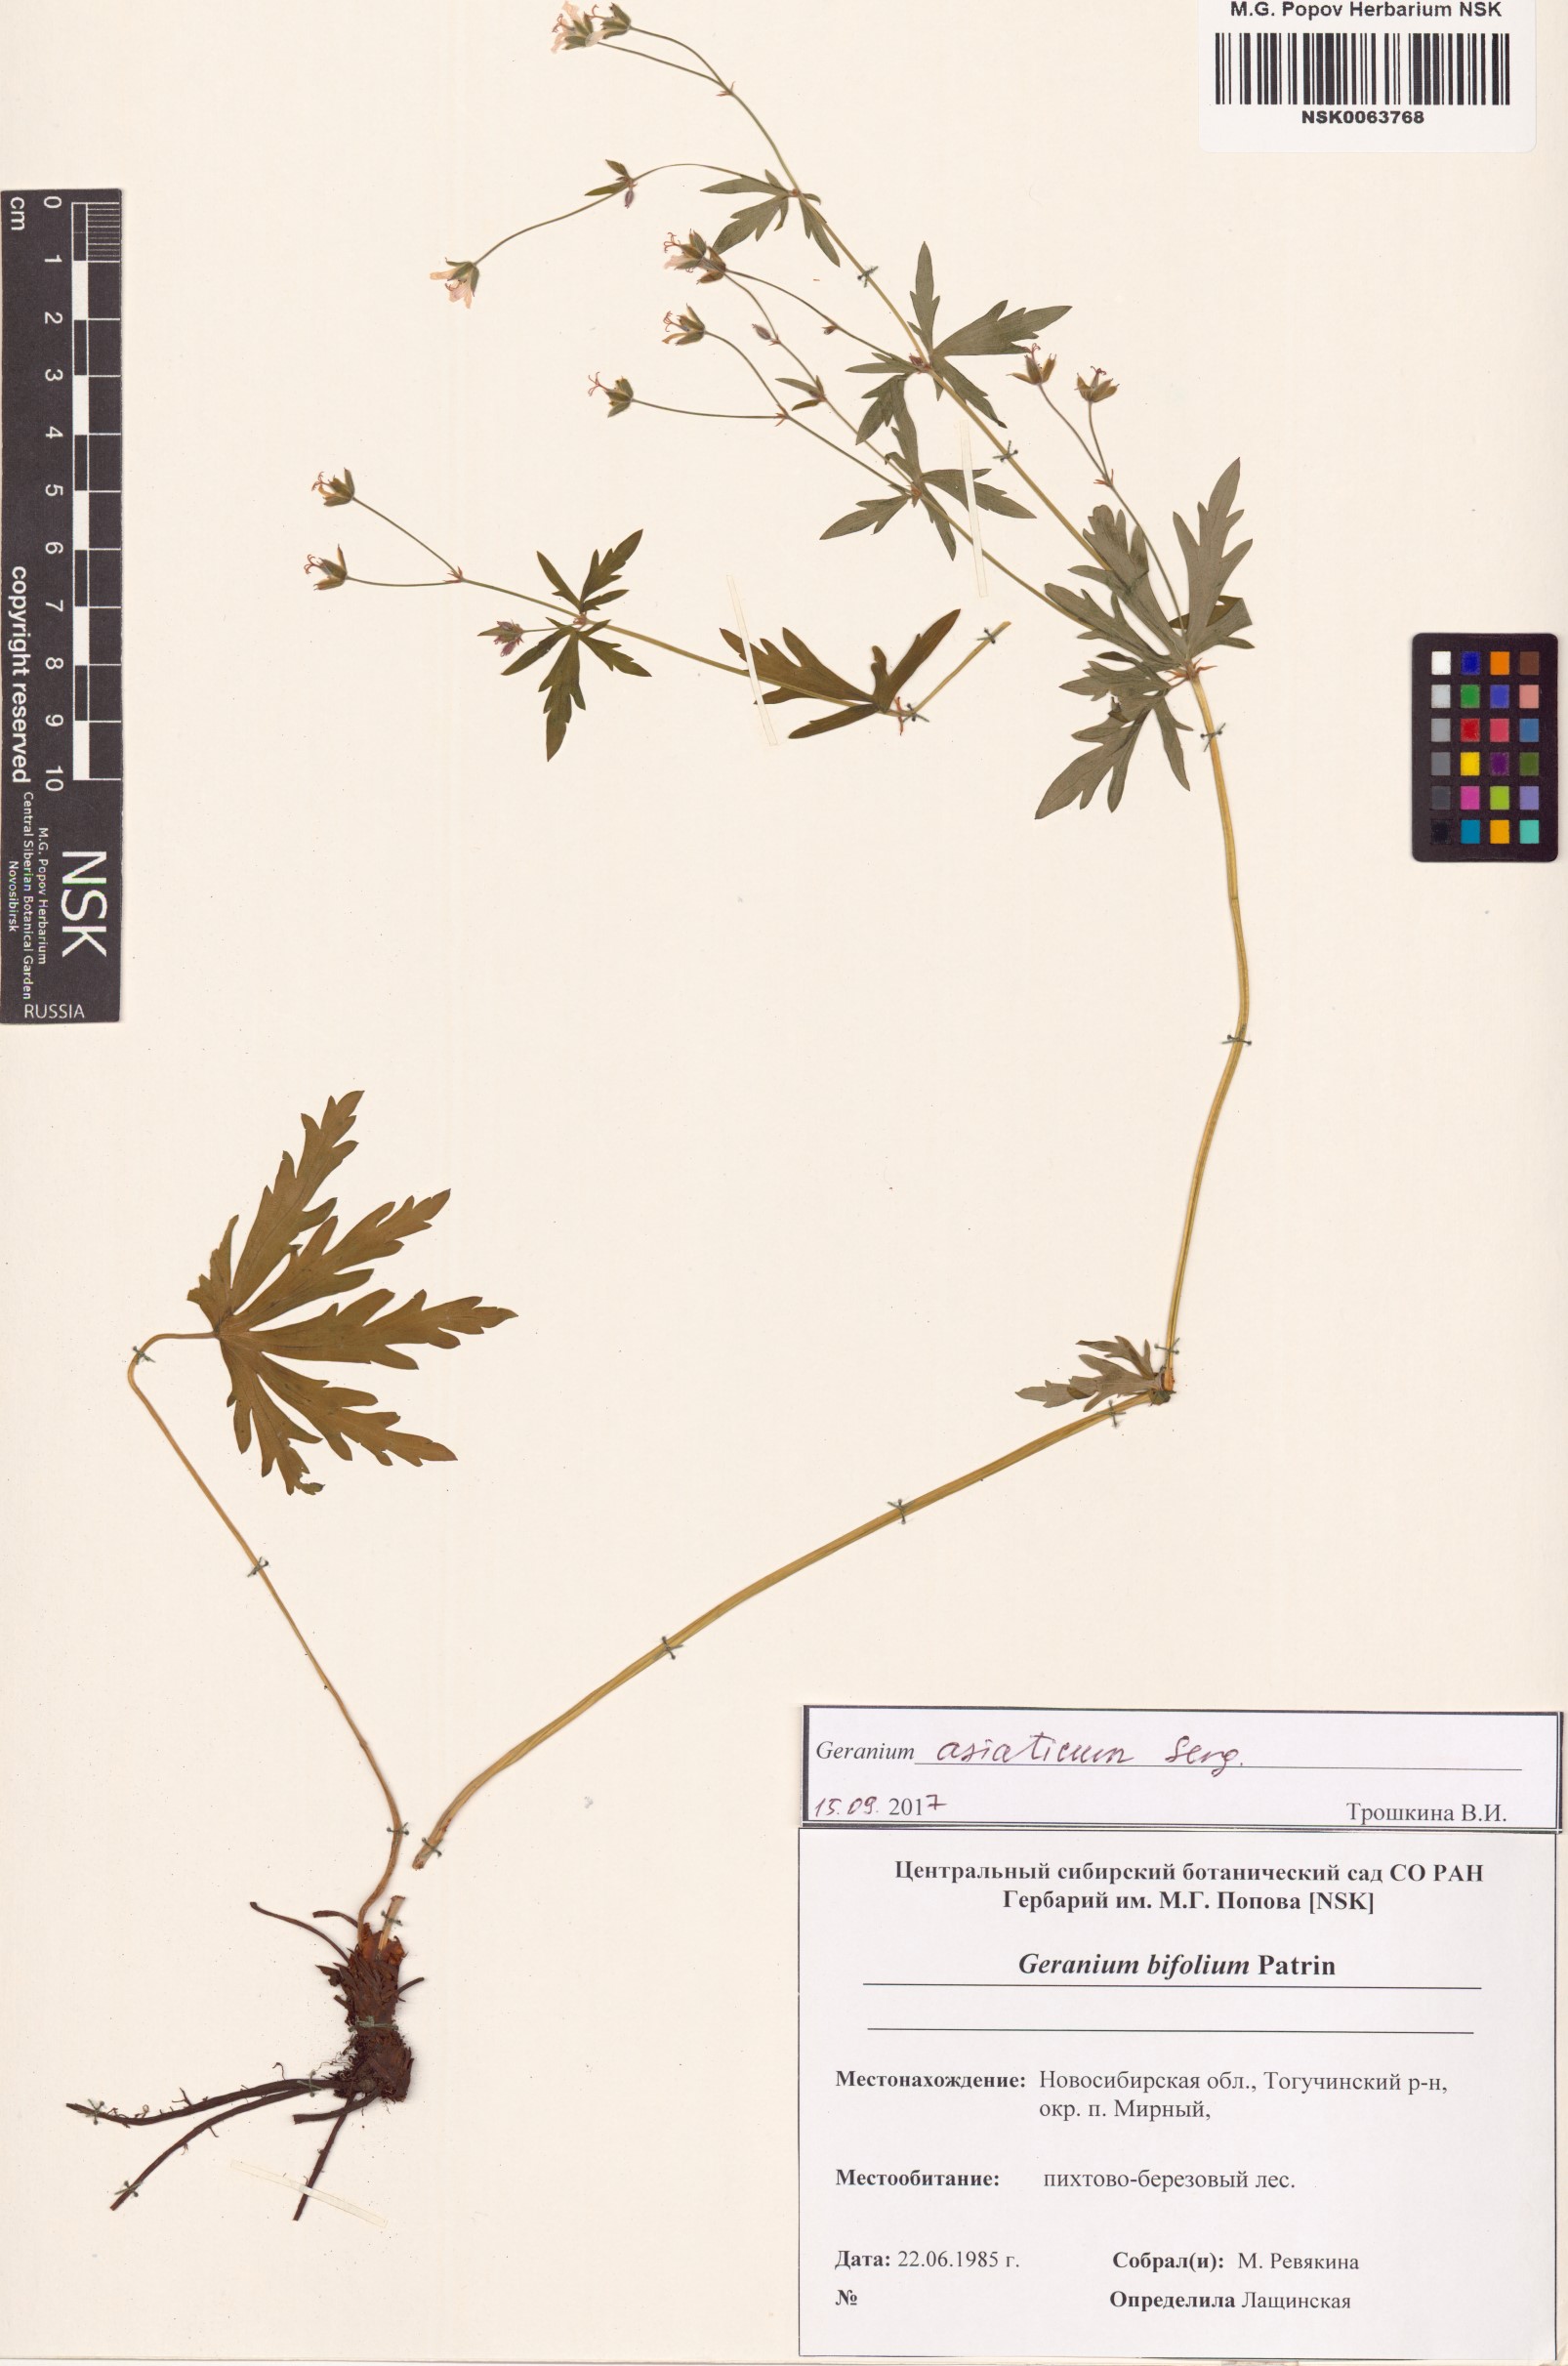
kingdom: Plantae
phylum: Tracheophyta
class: Magnoliopsida
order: Geraniales
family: Geraniaceae
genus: Geranium
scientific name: Geranium pseudosibiricum
